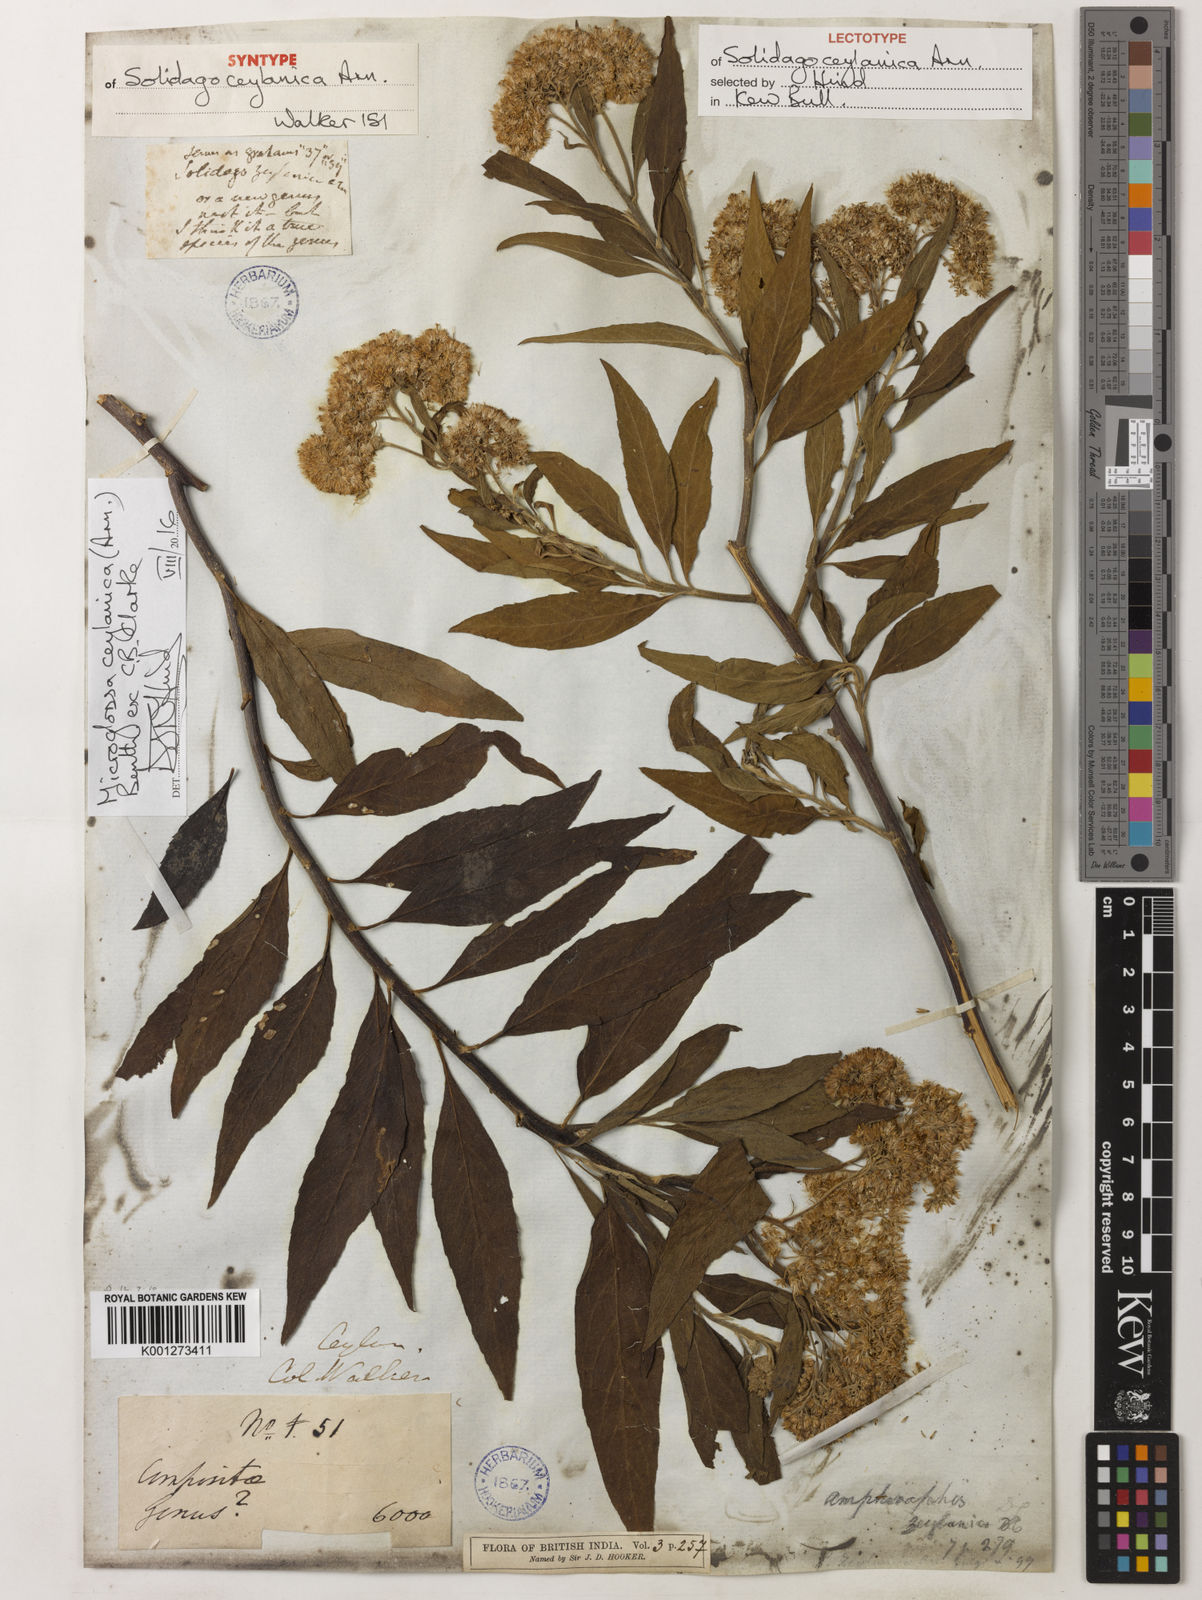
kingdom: Plantae
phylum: Tracheophyta
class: Magnoliopsida
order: Asterales
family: Asteraceae
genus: Psiadia
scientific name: Psiadia ceylanica
